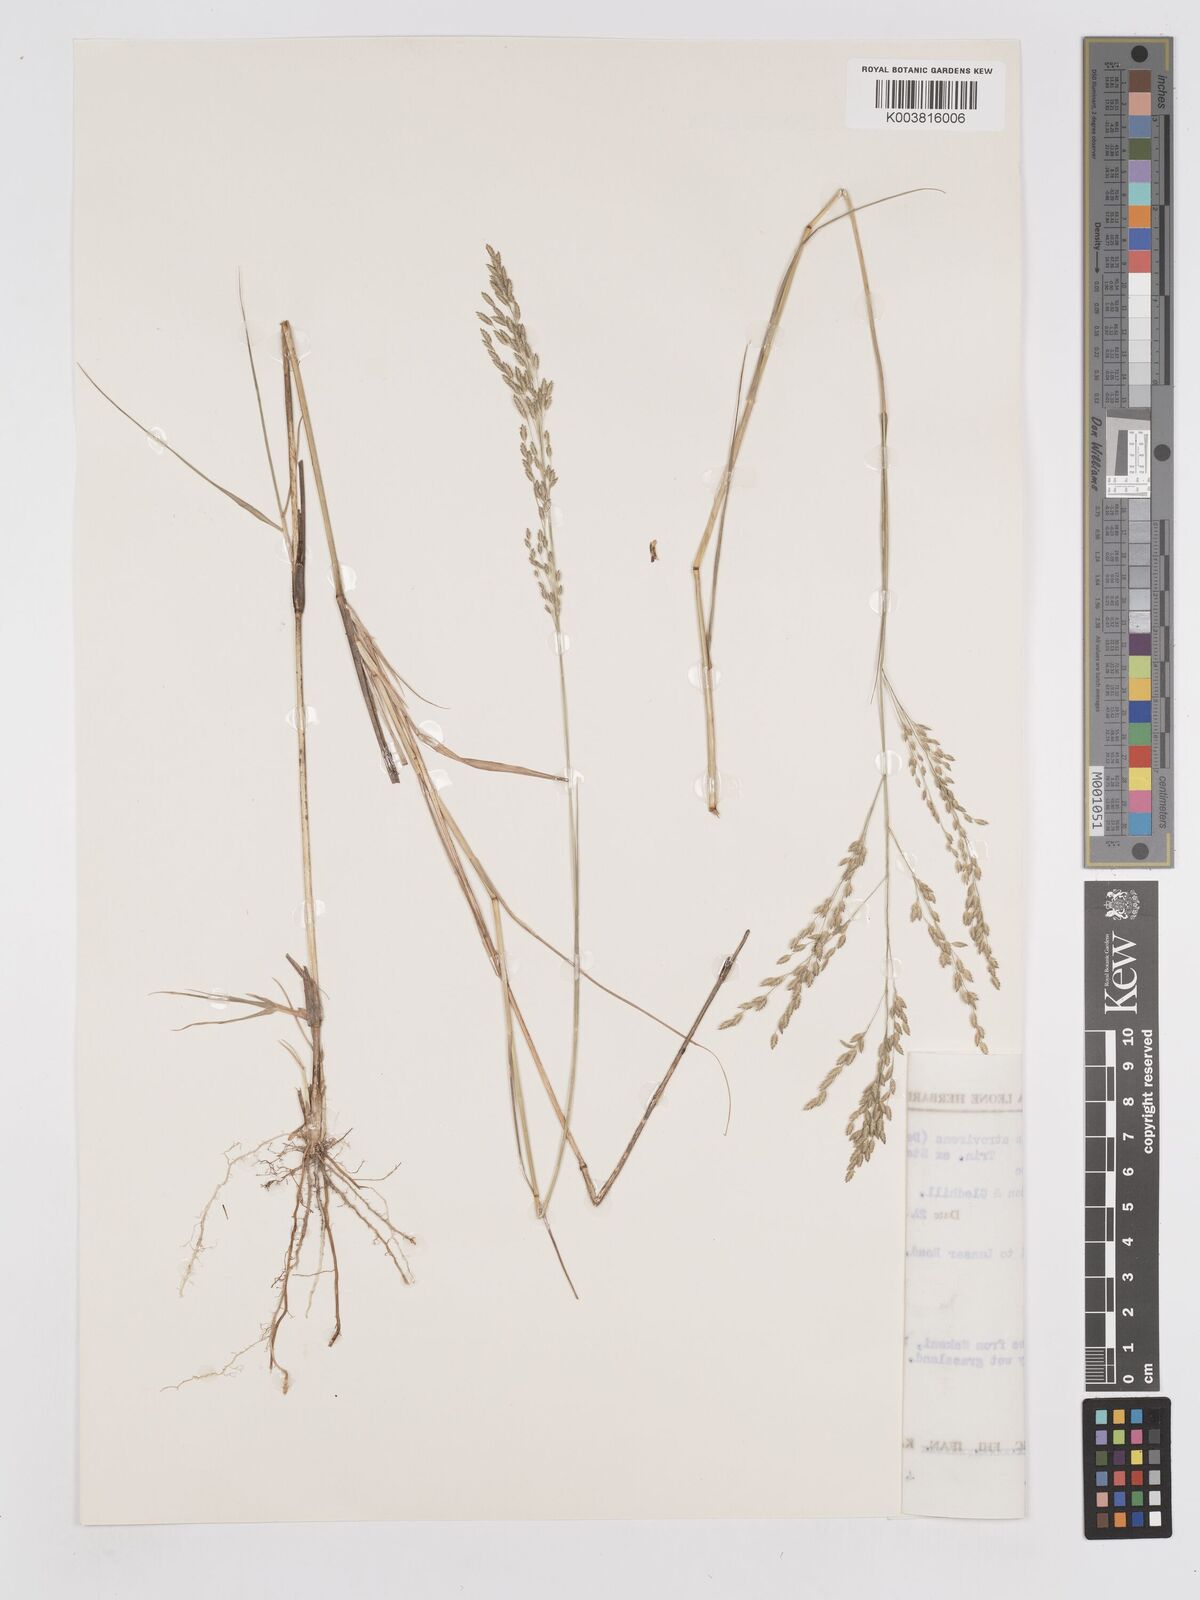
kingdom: Plantae
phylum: Tracheophyta
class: Liliopsida
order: Poales
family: Poaceae
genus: Eragrostis
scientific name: Eragrostis atrovirens
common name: Thalia lovegrass
